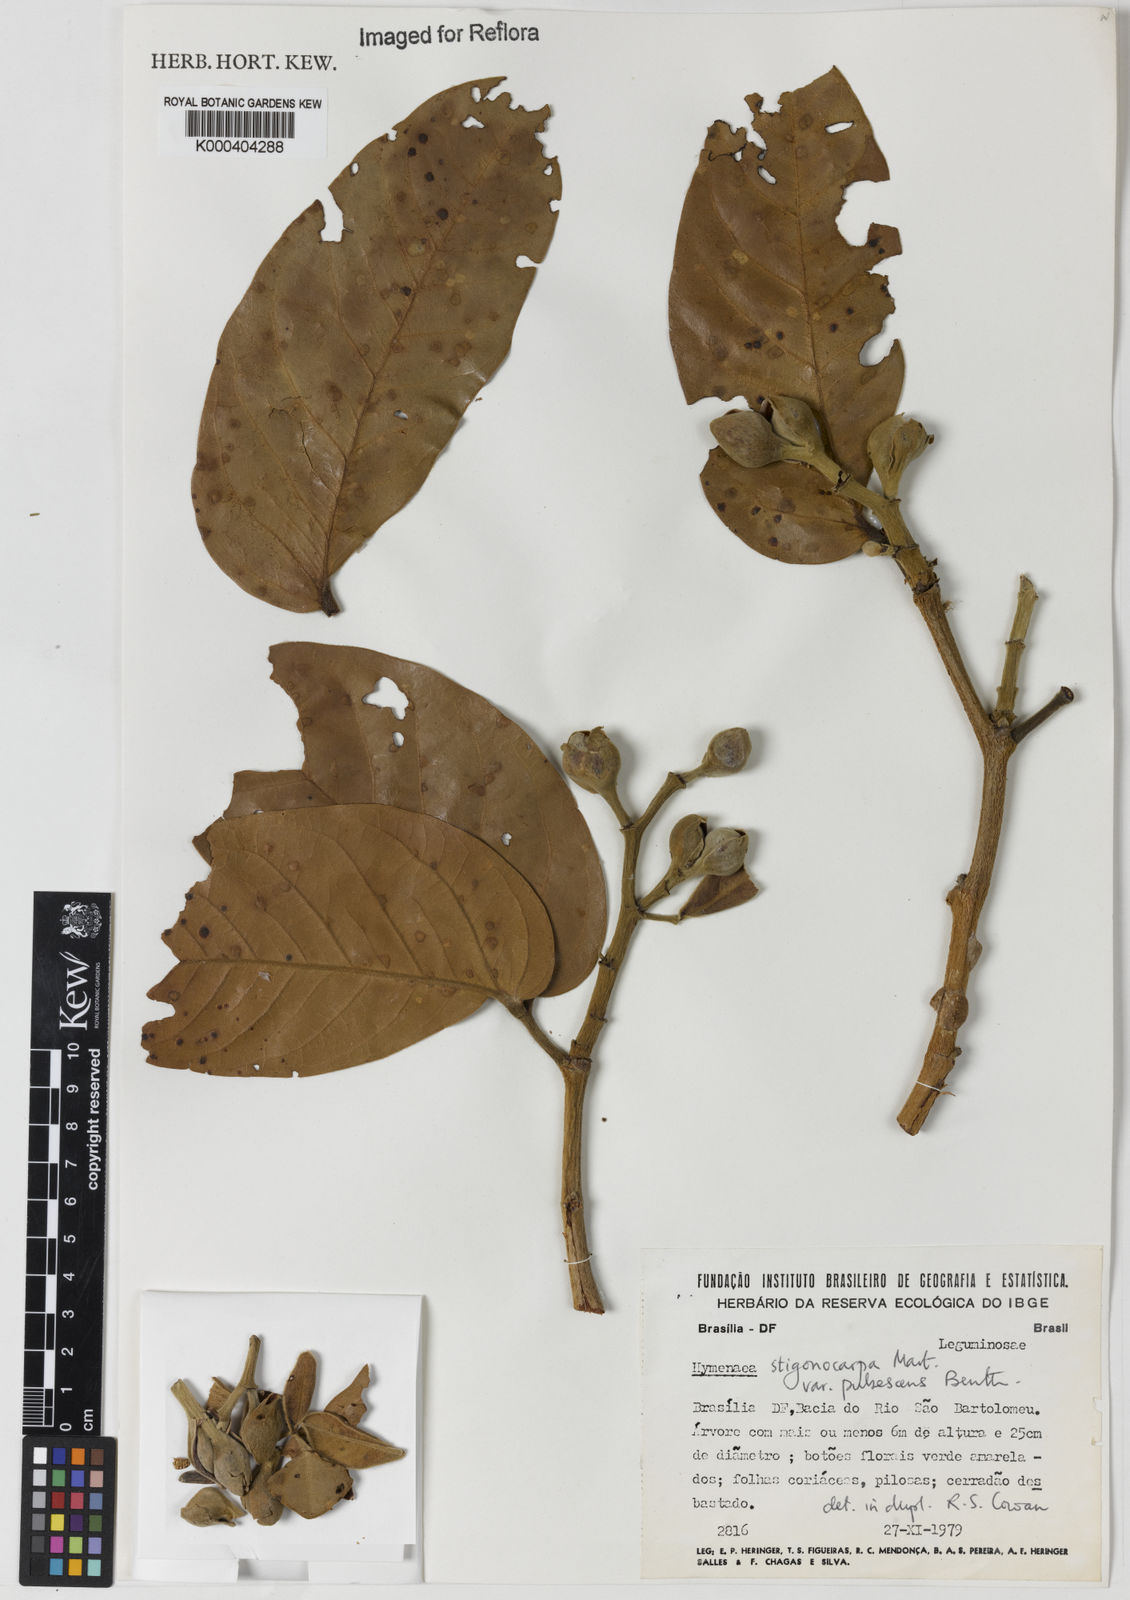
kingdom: Plantae
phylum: Tracheophyta
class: Magnoliopsida
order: Fabales
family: Fabaceae
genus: Hymenaea
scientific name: Hymenaea stigonocarpa
